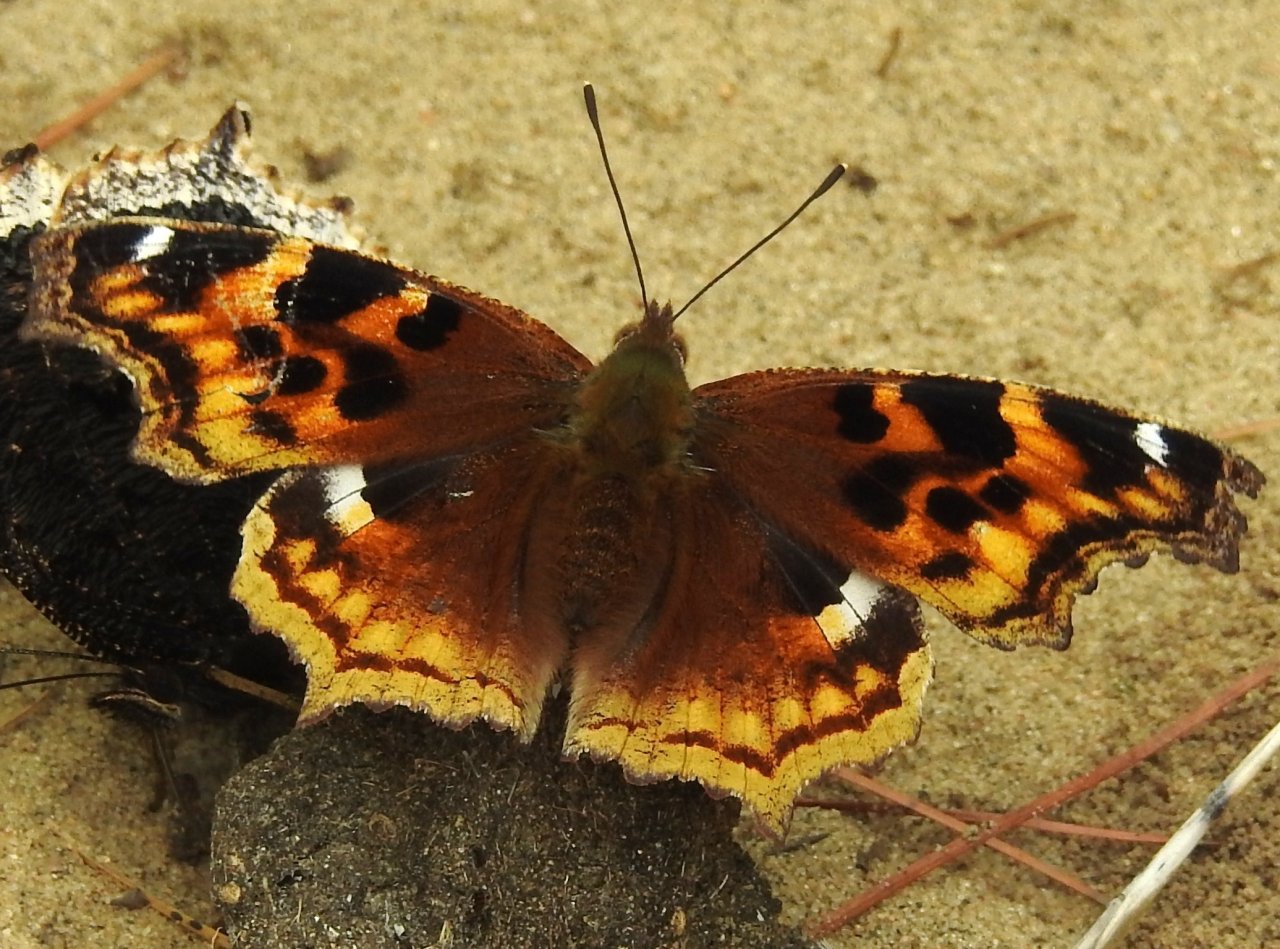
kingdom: Animalia
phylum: Arthropoda
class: Insecta
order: Lepidoptera
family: Nymphalidae
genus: Polygonia
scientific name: Polygonia vaualbum
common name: Compton Tortoiseshell
